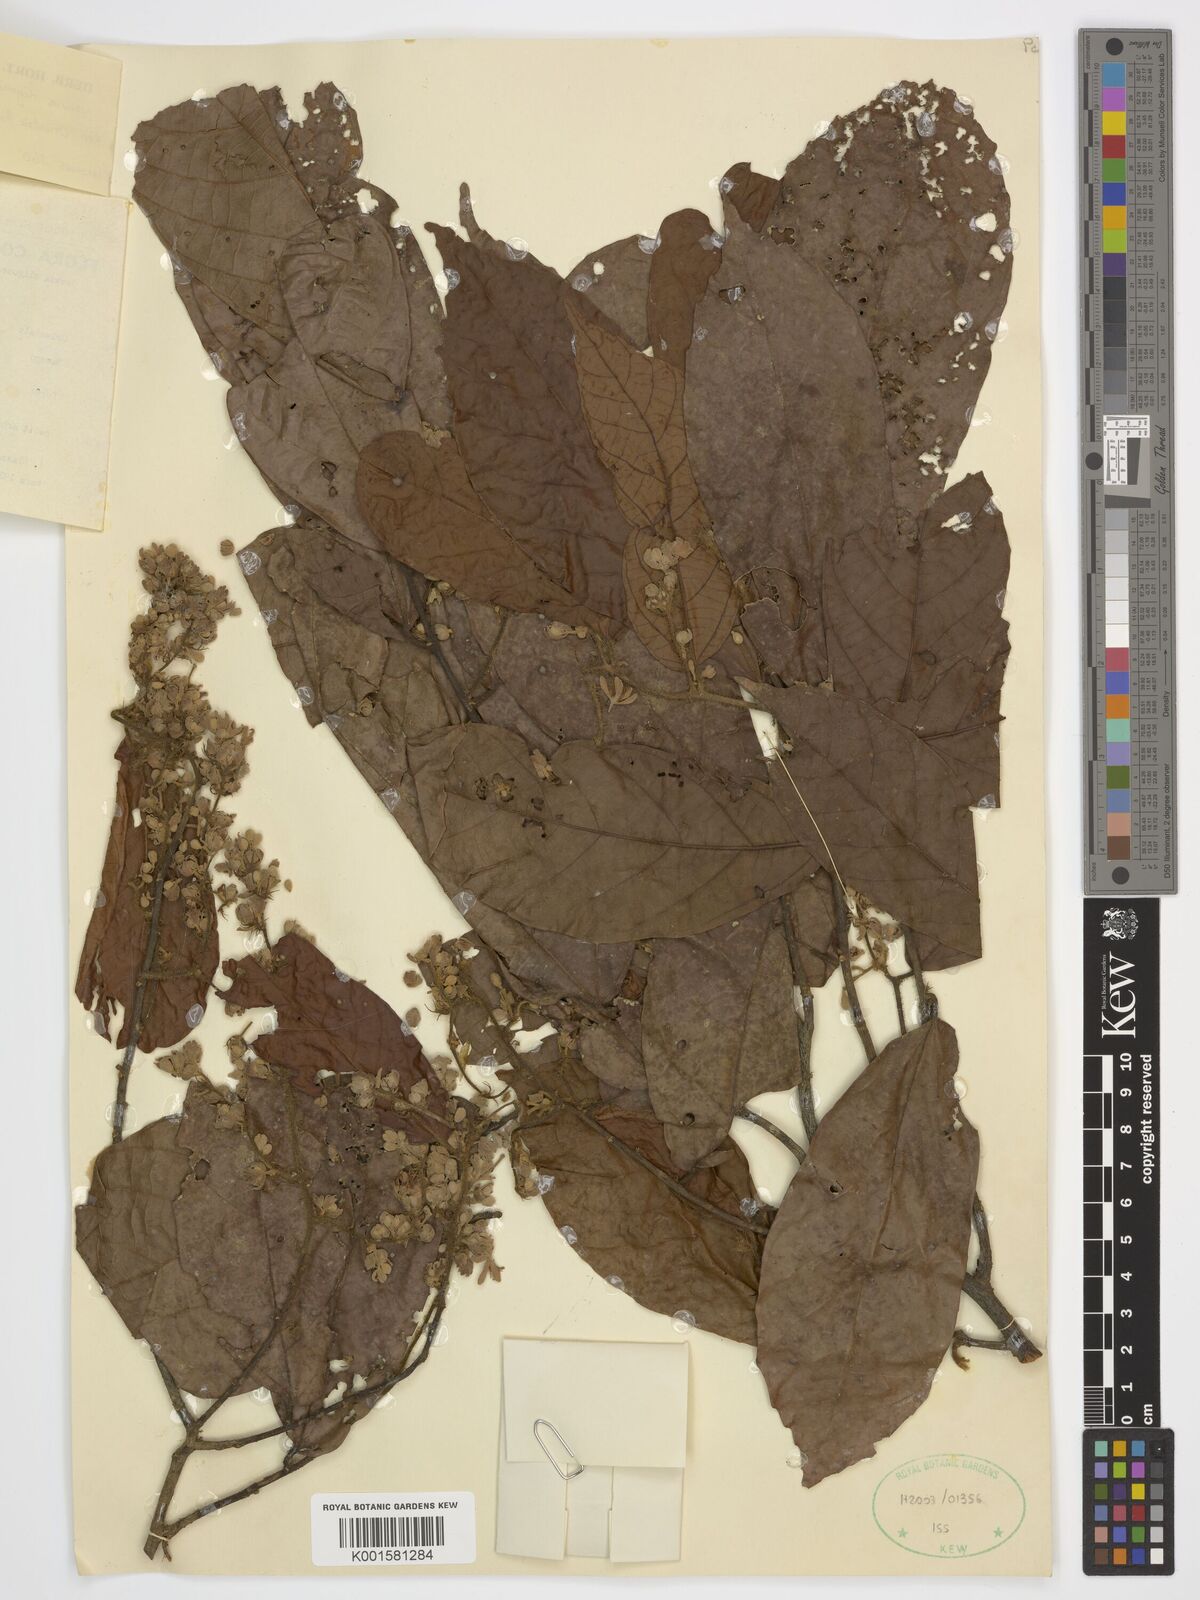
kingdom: Plantae
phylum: Tracheophyta
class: Magnoliopsida
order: Malvales
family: Malvaceae
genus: Microcos
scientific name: Microcos oligoneura
